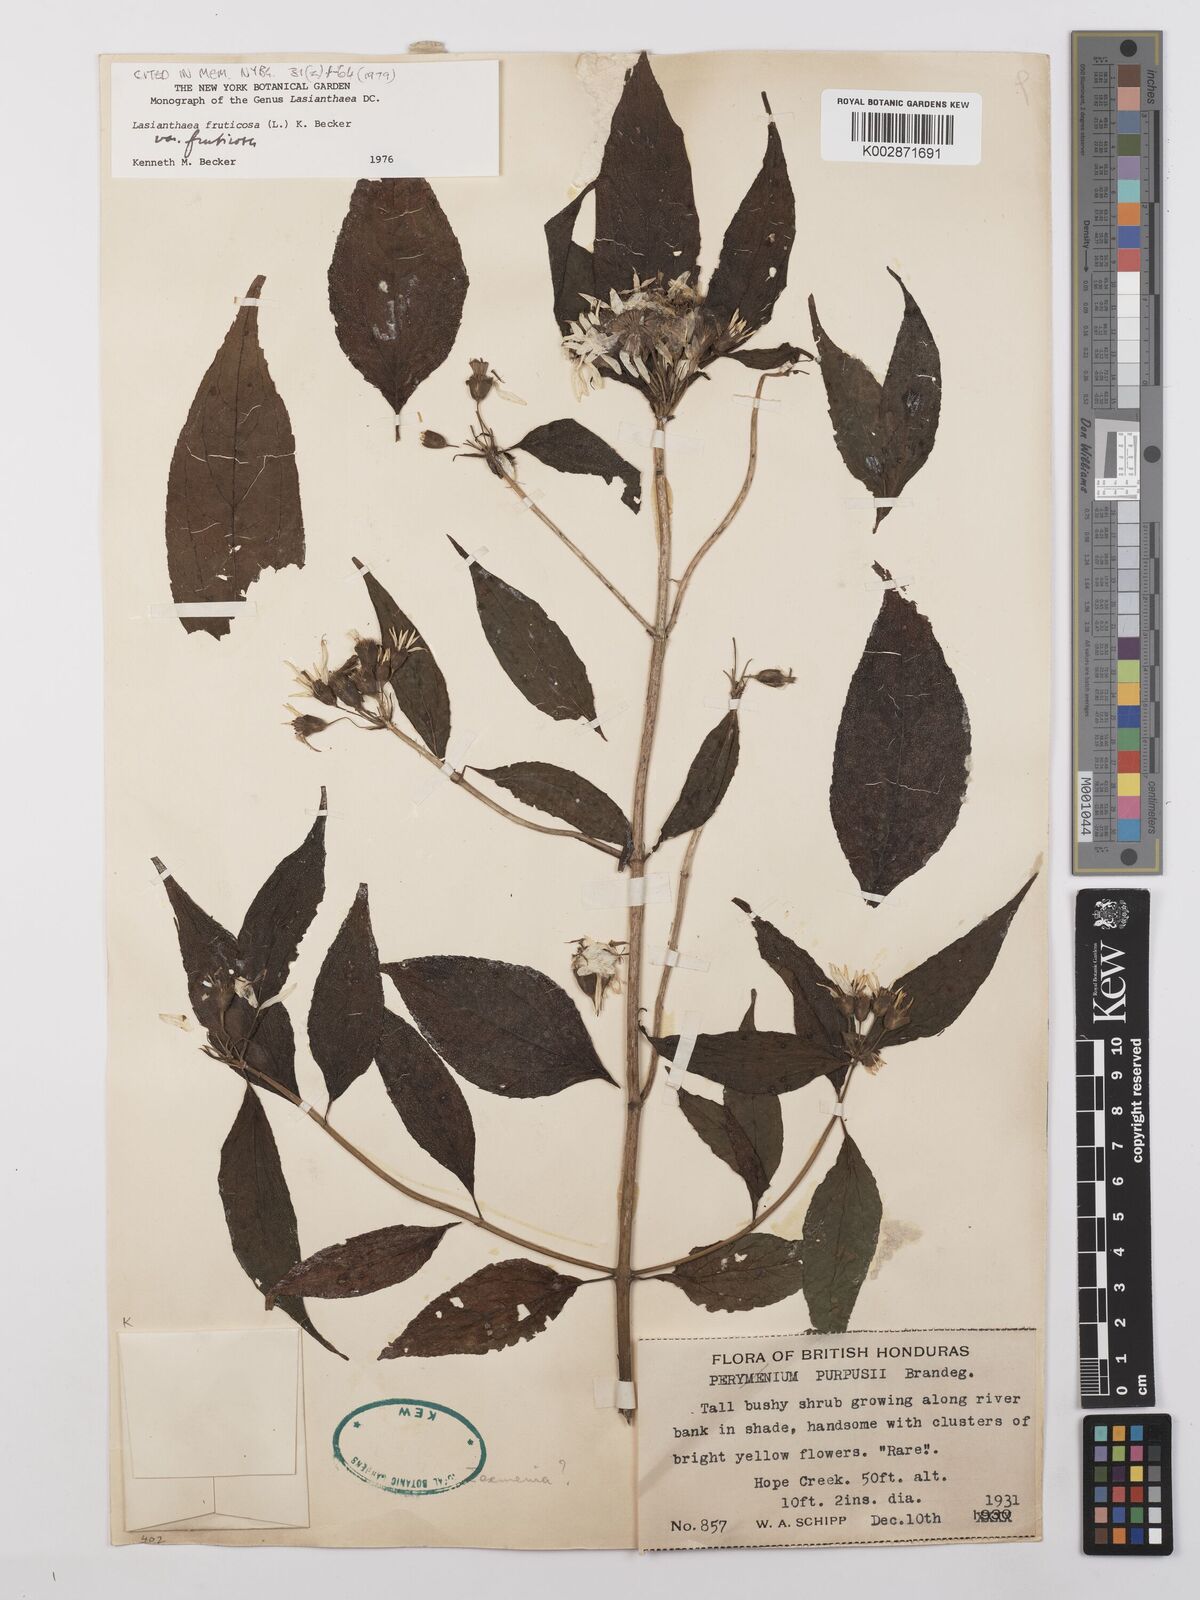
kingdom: Plantae
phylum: Tracheophyta
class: Magnoliopsida
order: Asterales
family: Asteraceae
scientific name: Asteraceae
